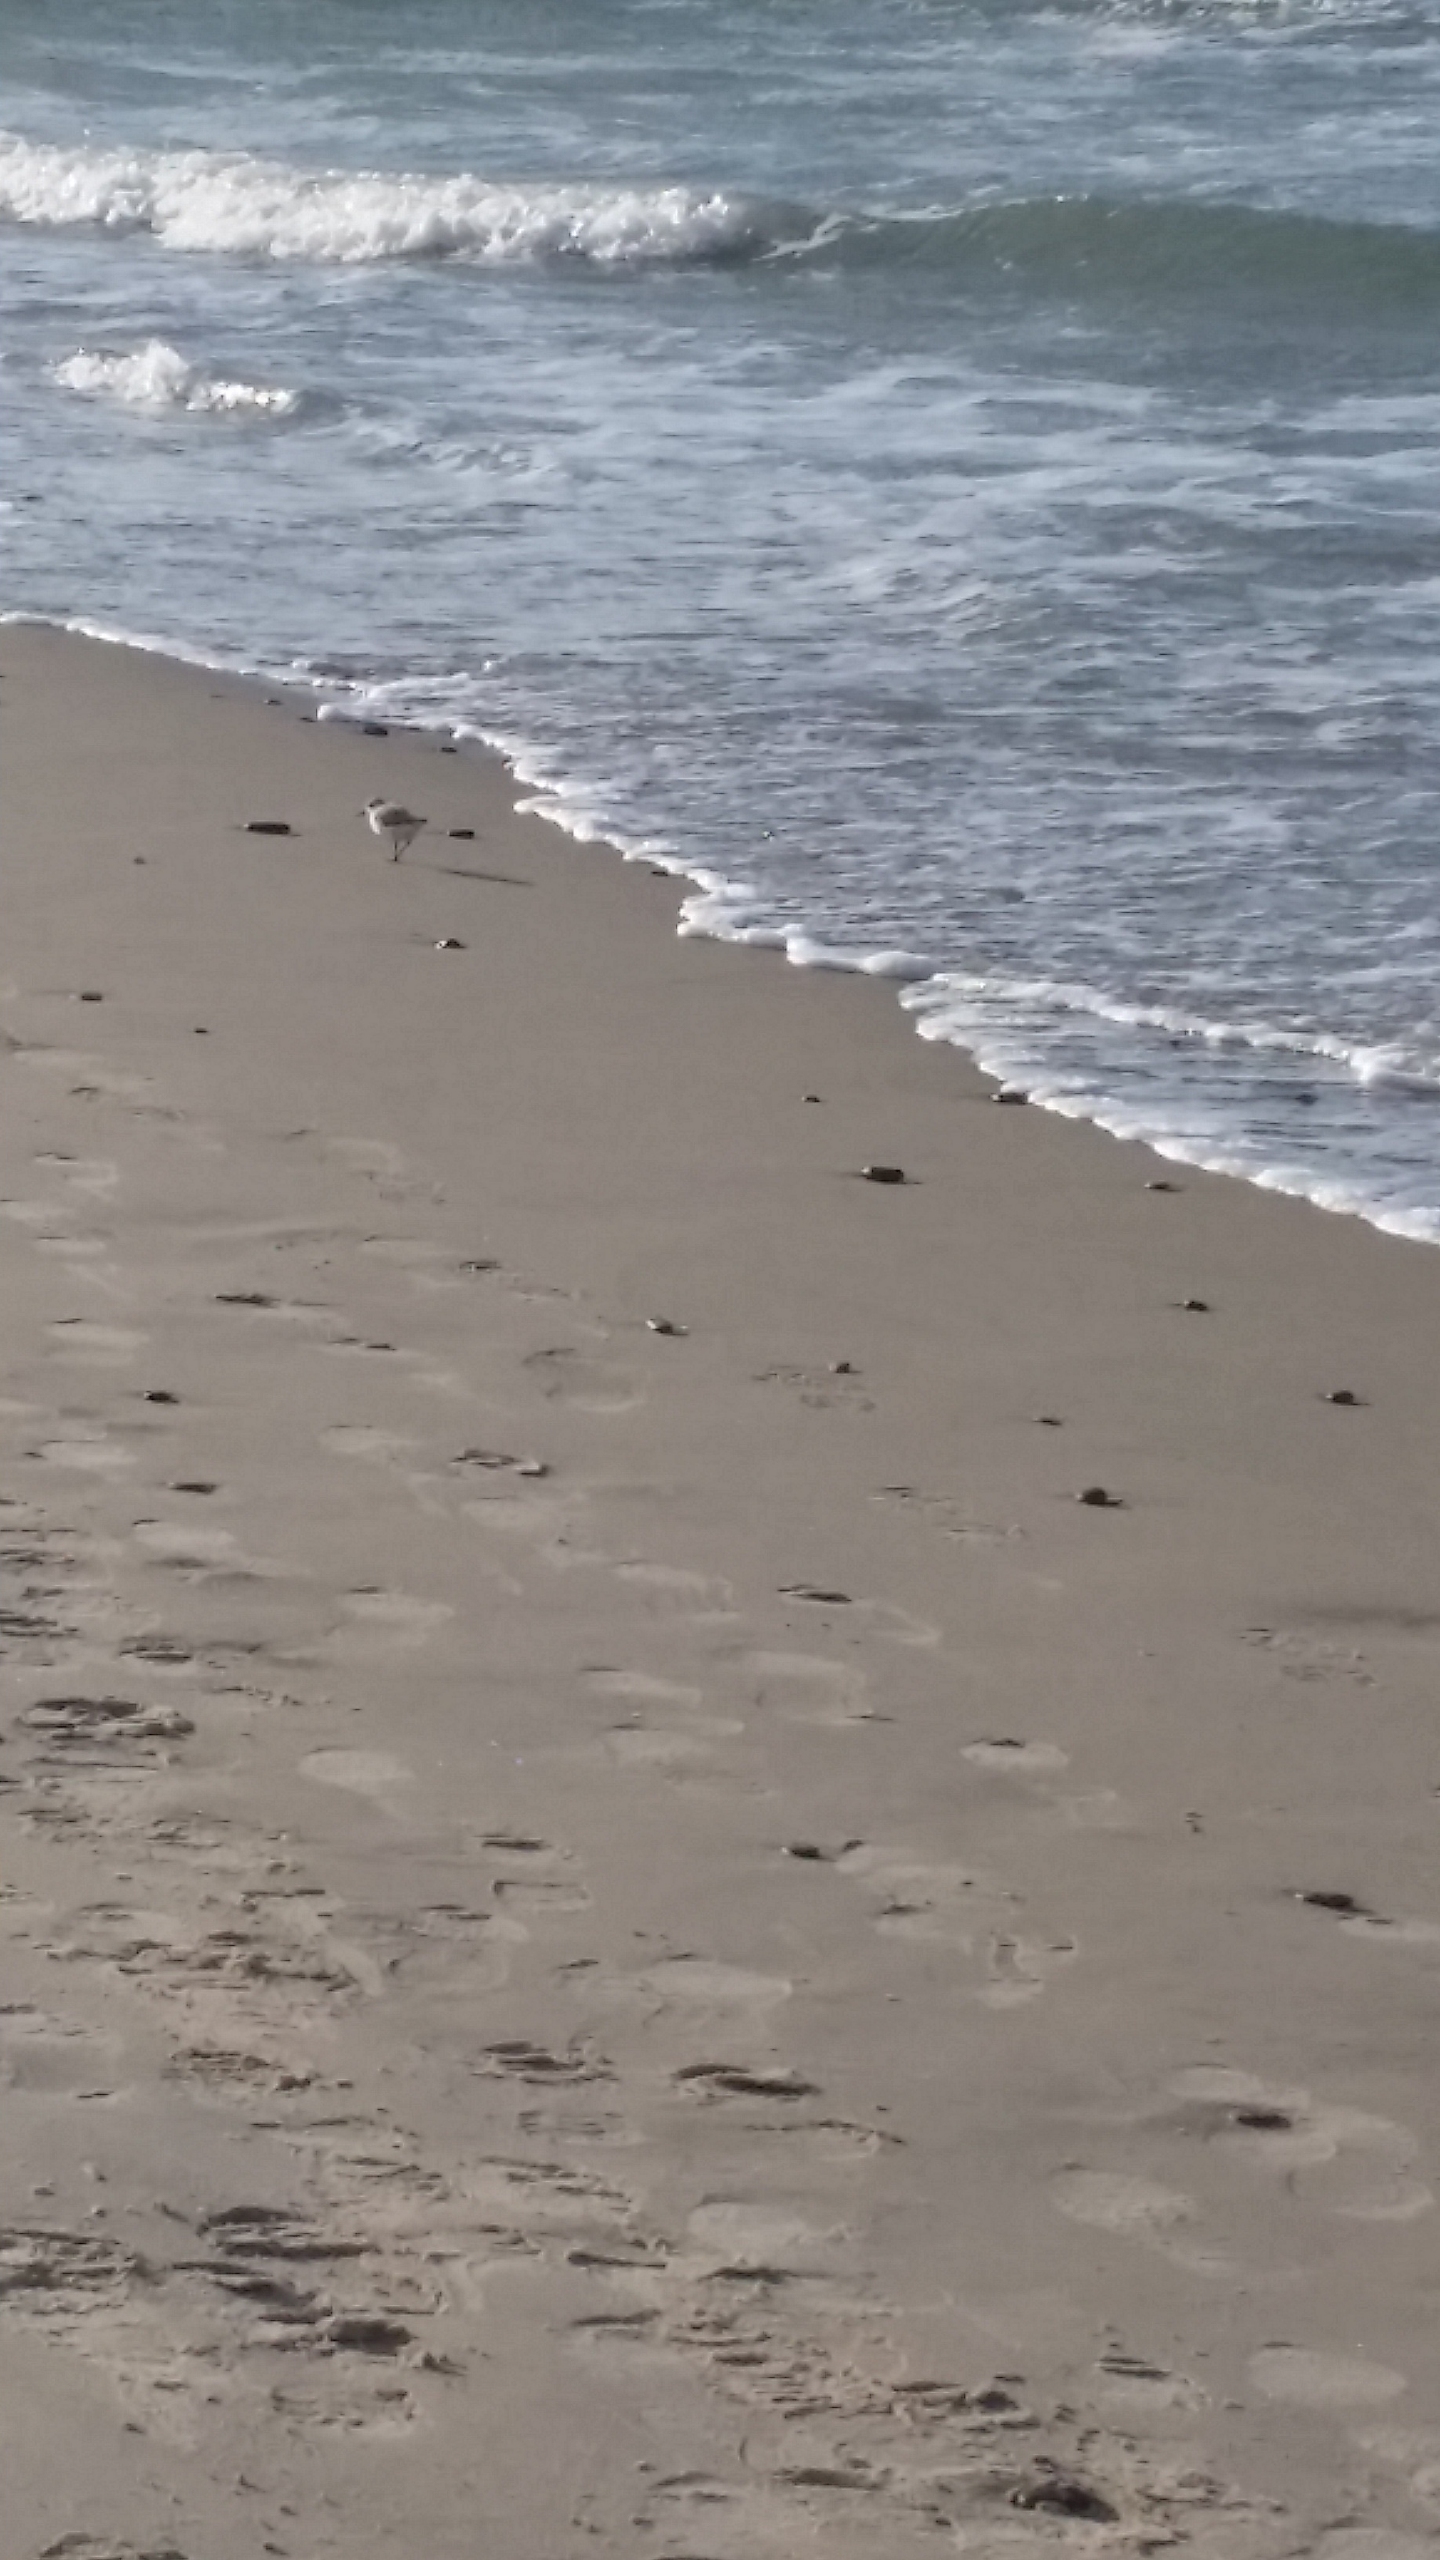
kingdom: Animalia
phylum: Chordata
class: Aves
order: Charadriiformes
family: Scolopacidae
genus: Calidris
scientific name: Calidris alba
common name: Sandløber
